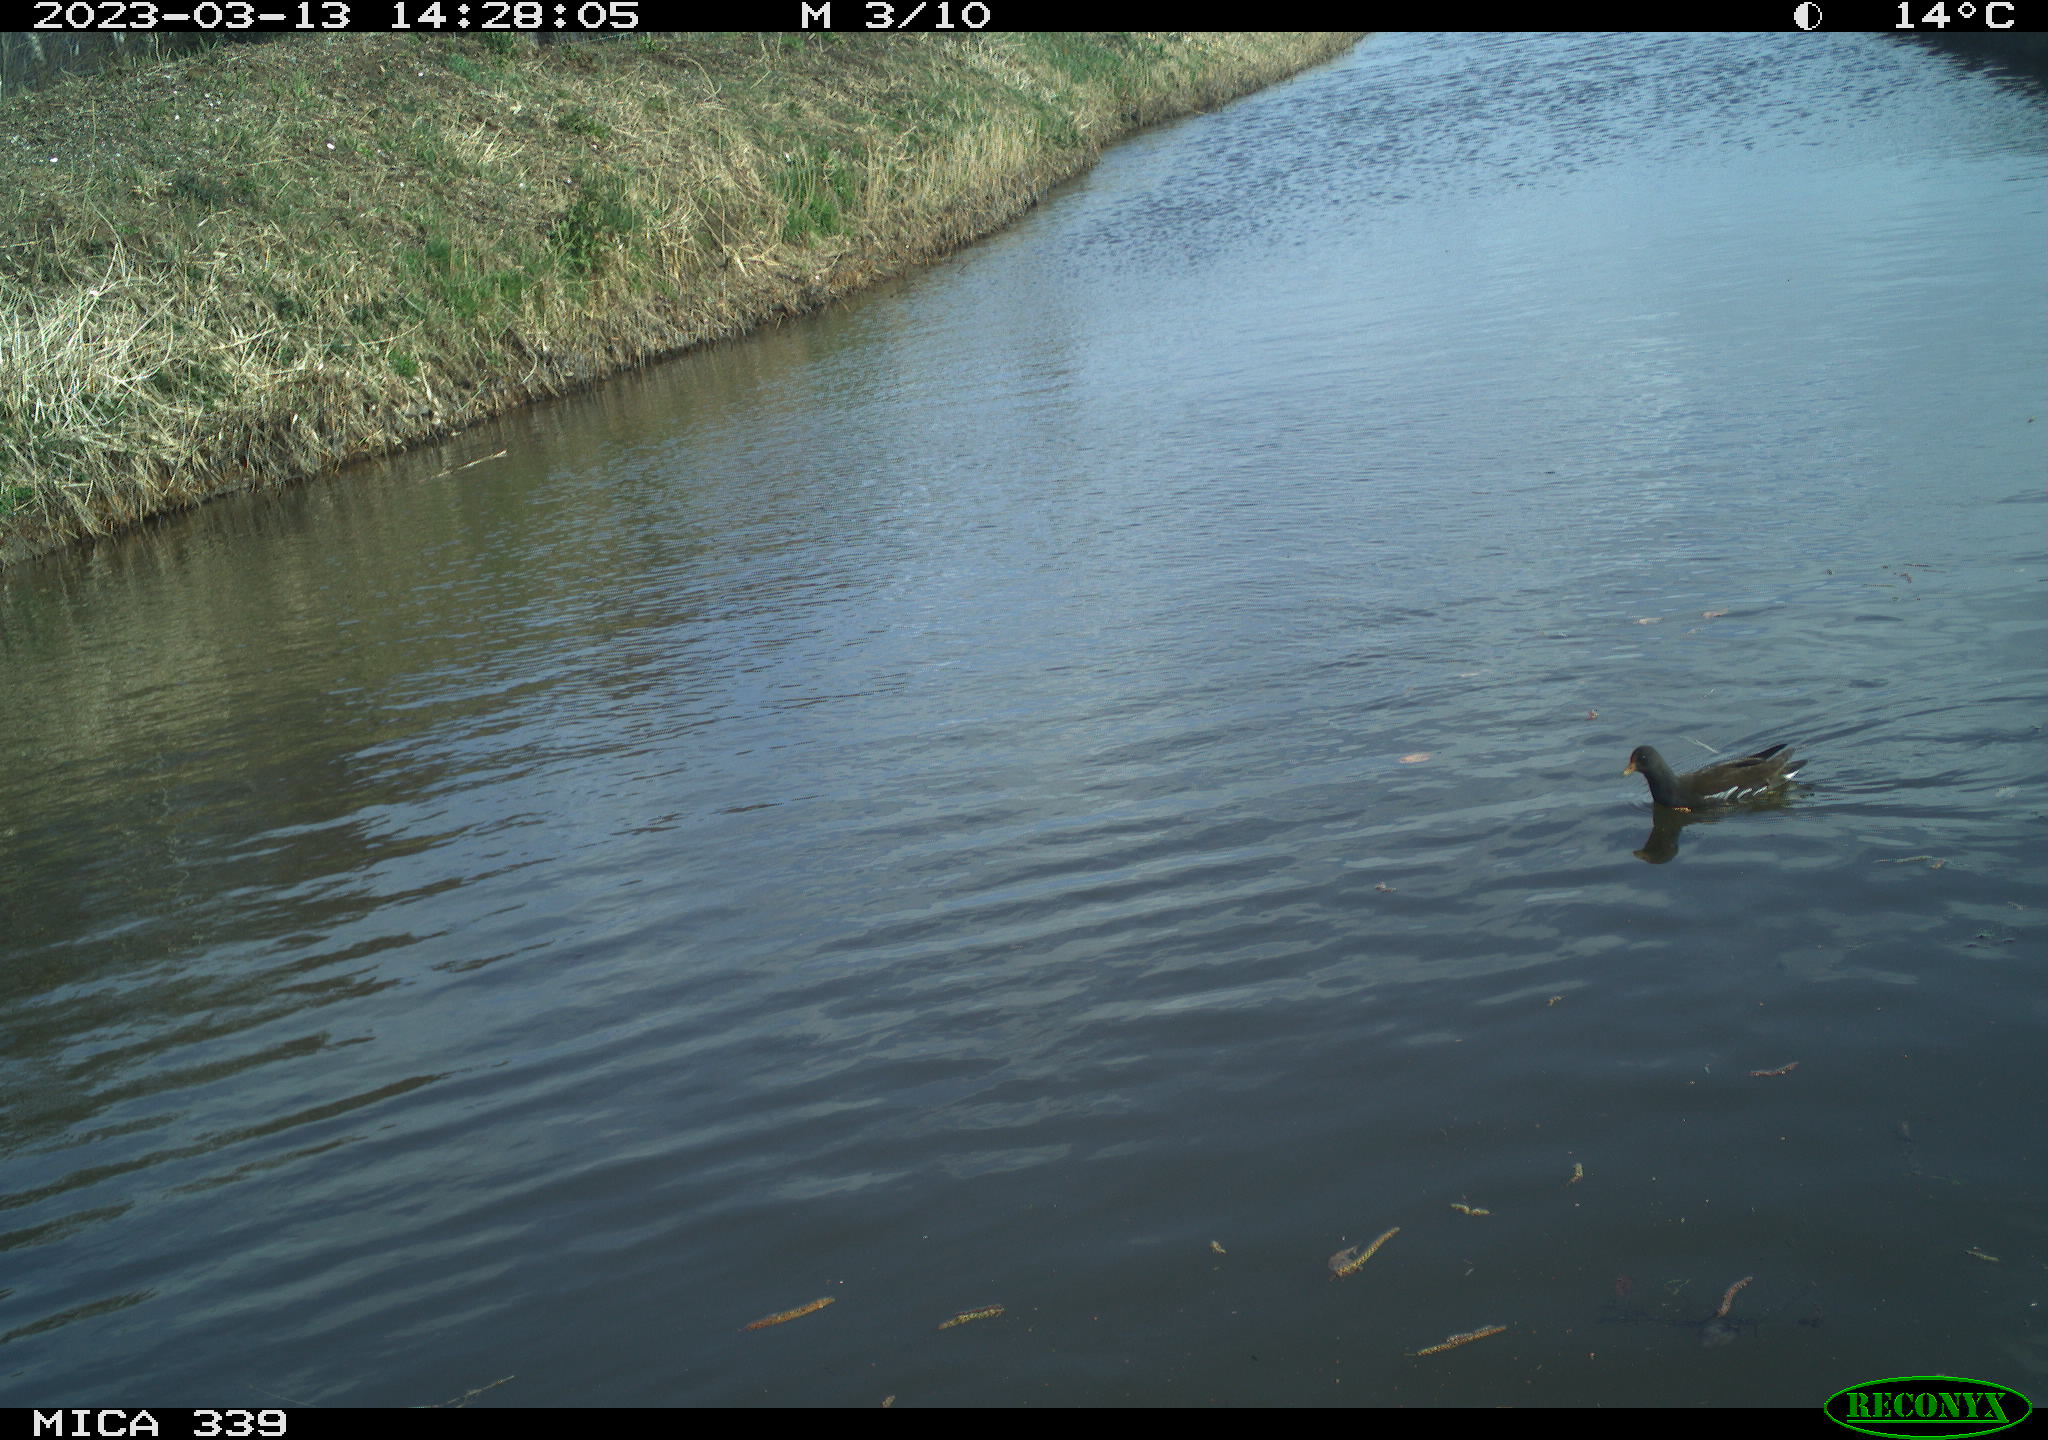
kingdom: Animalia
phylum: Chordata
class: Aves
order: Gruiformes
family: Rallidae
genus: Gallinula
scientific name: Gallinula chloropus
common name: Common moorhen
